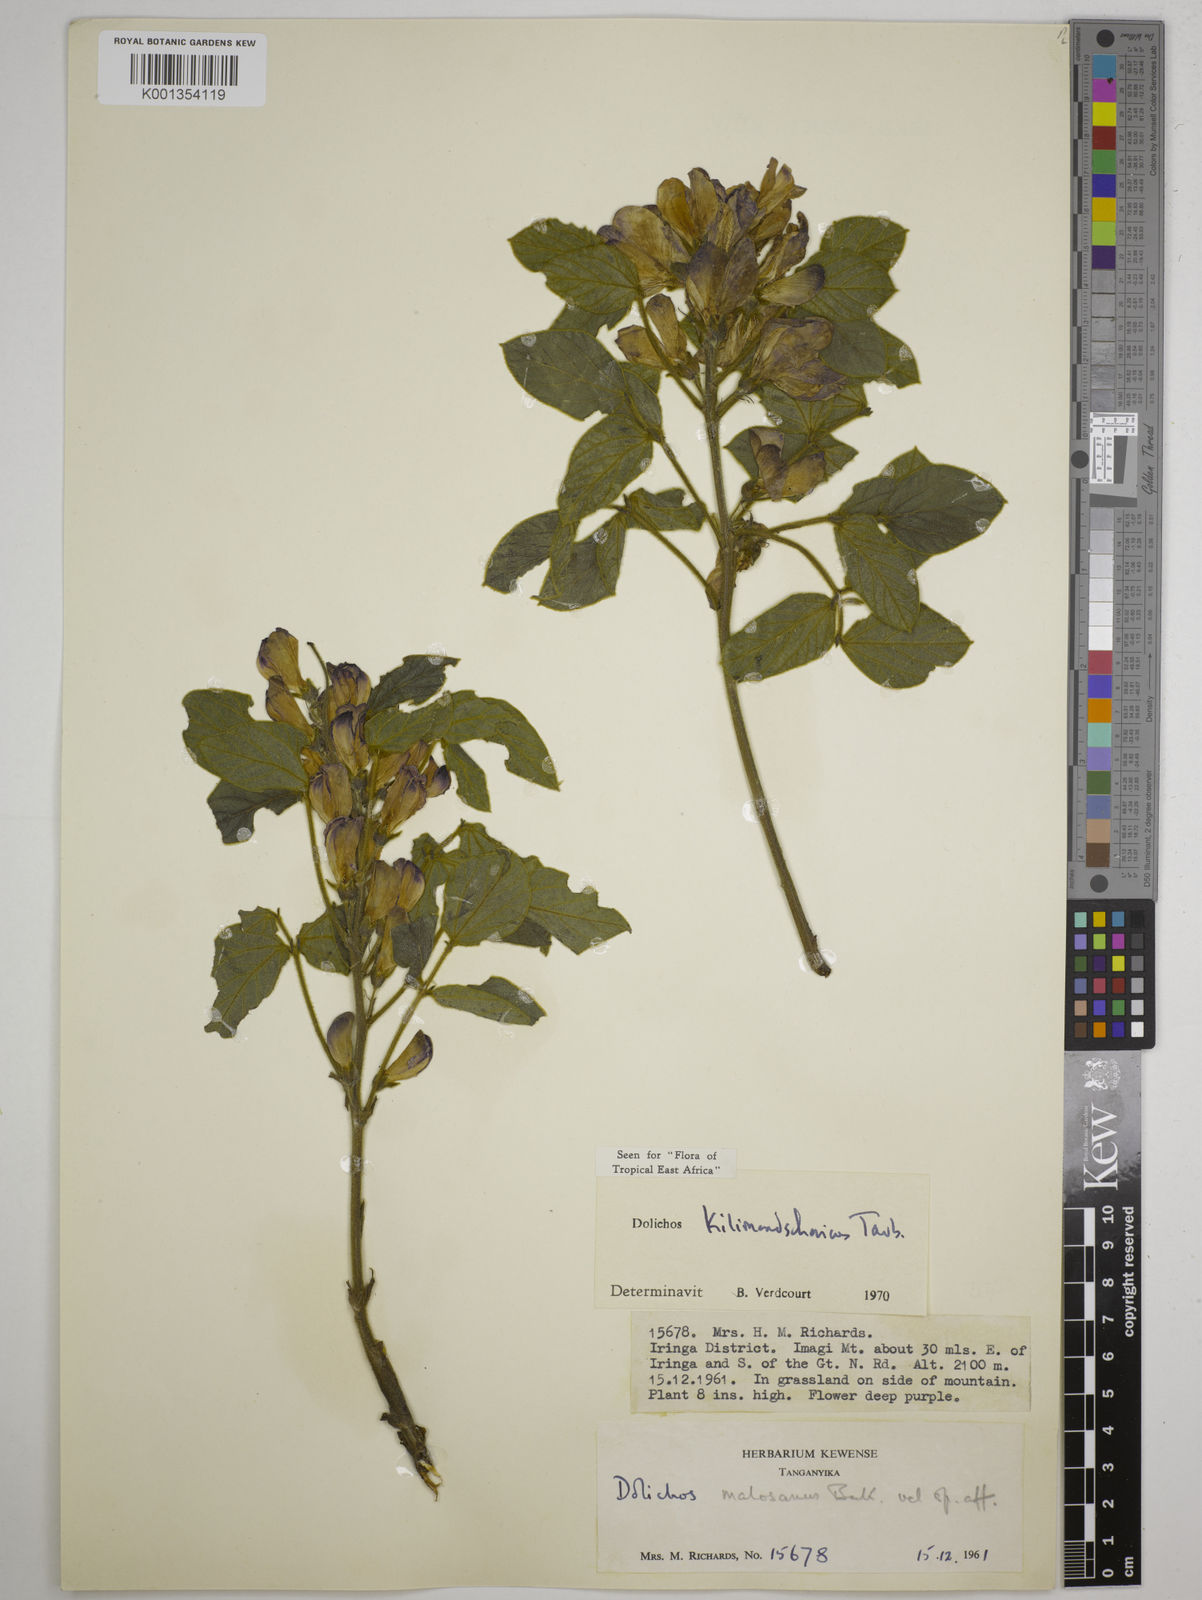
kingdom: Plantae
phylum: Tracheophyta
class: Magnoliopsida
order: Fabales
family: Fabaceae
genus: Dolichos
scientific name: Dolichos kilimandscharicus
